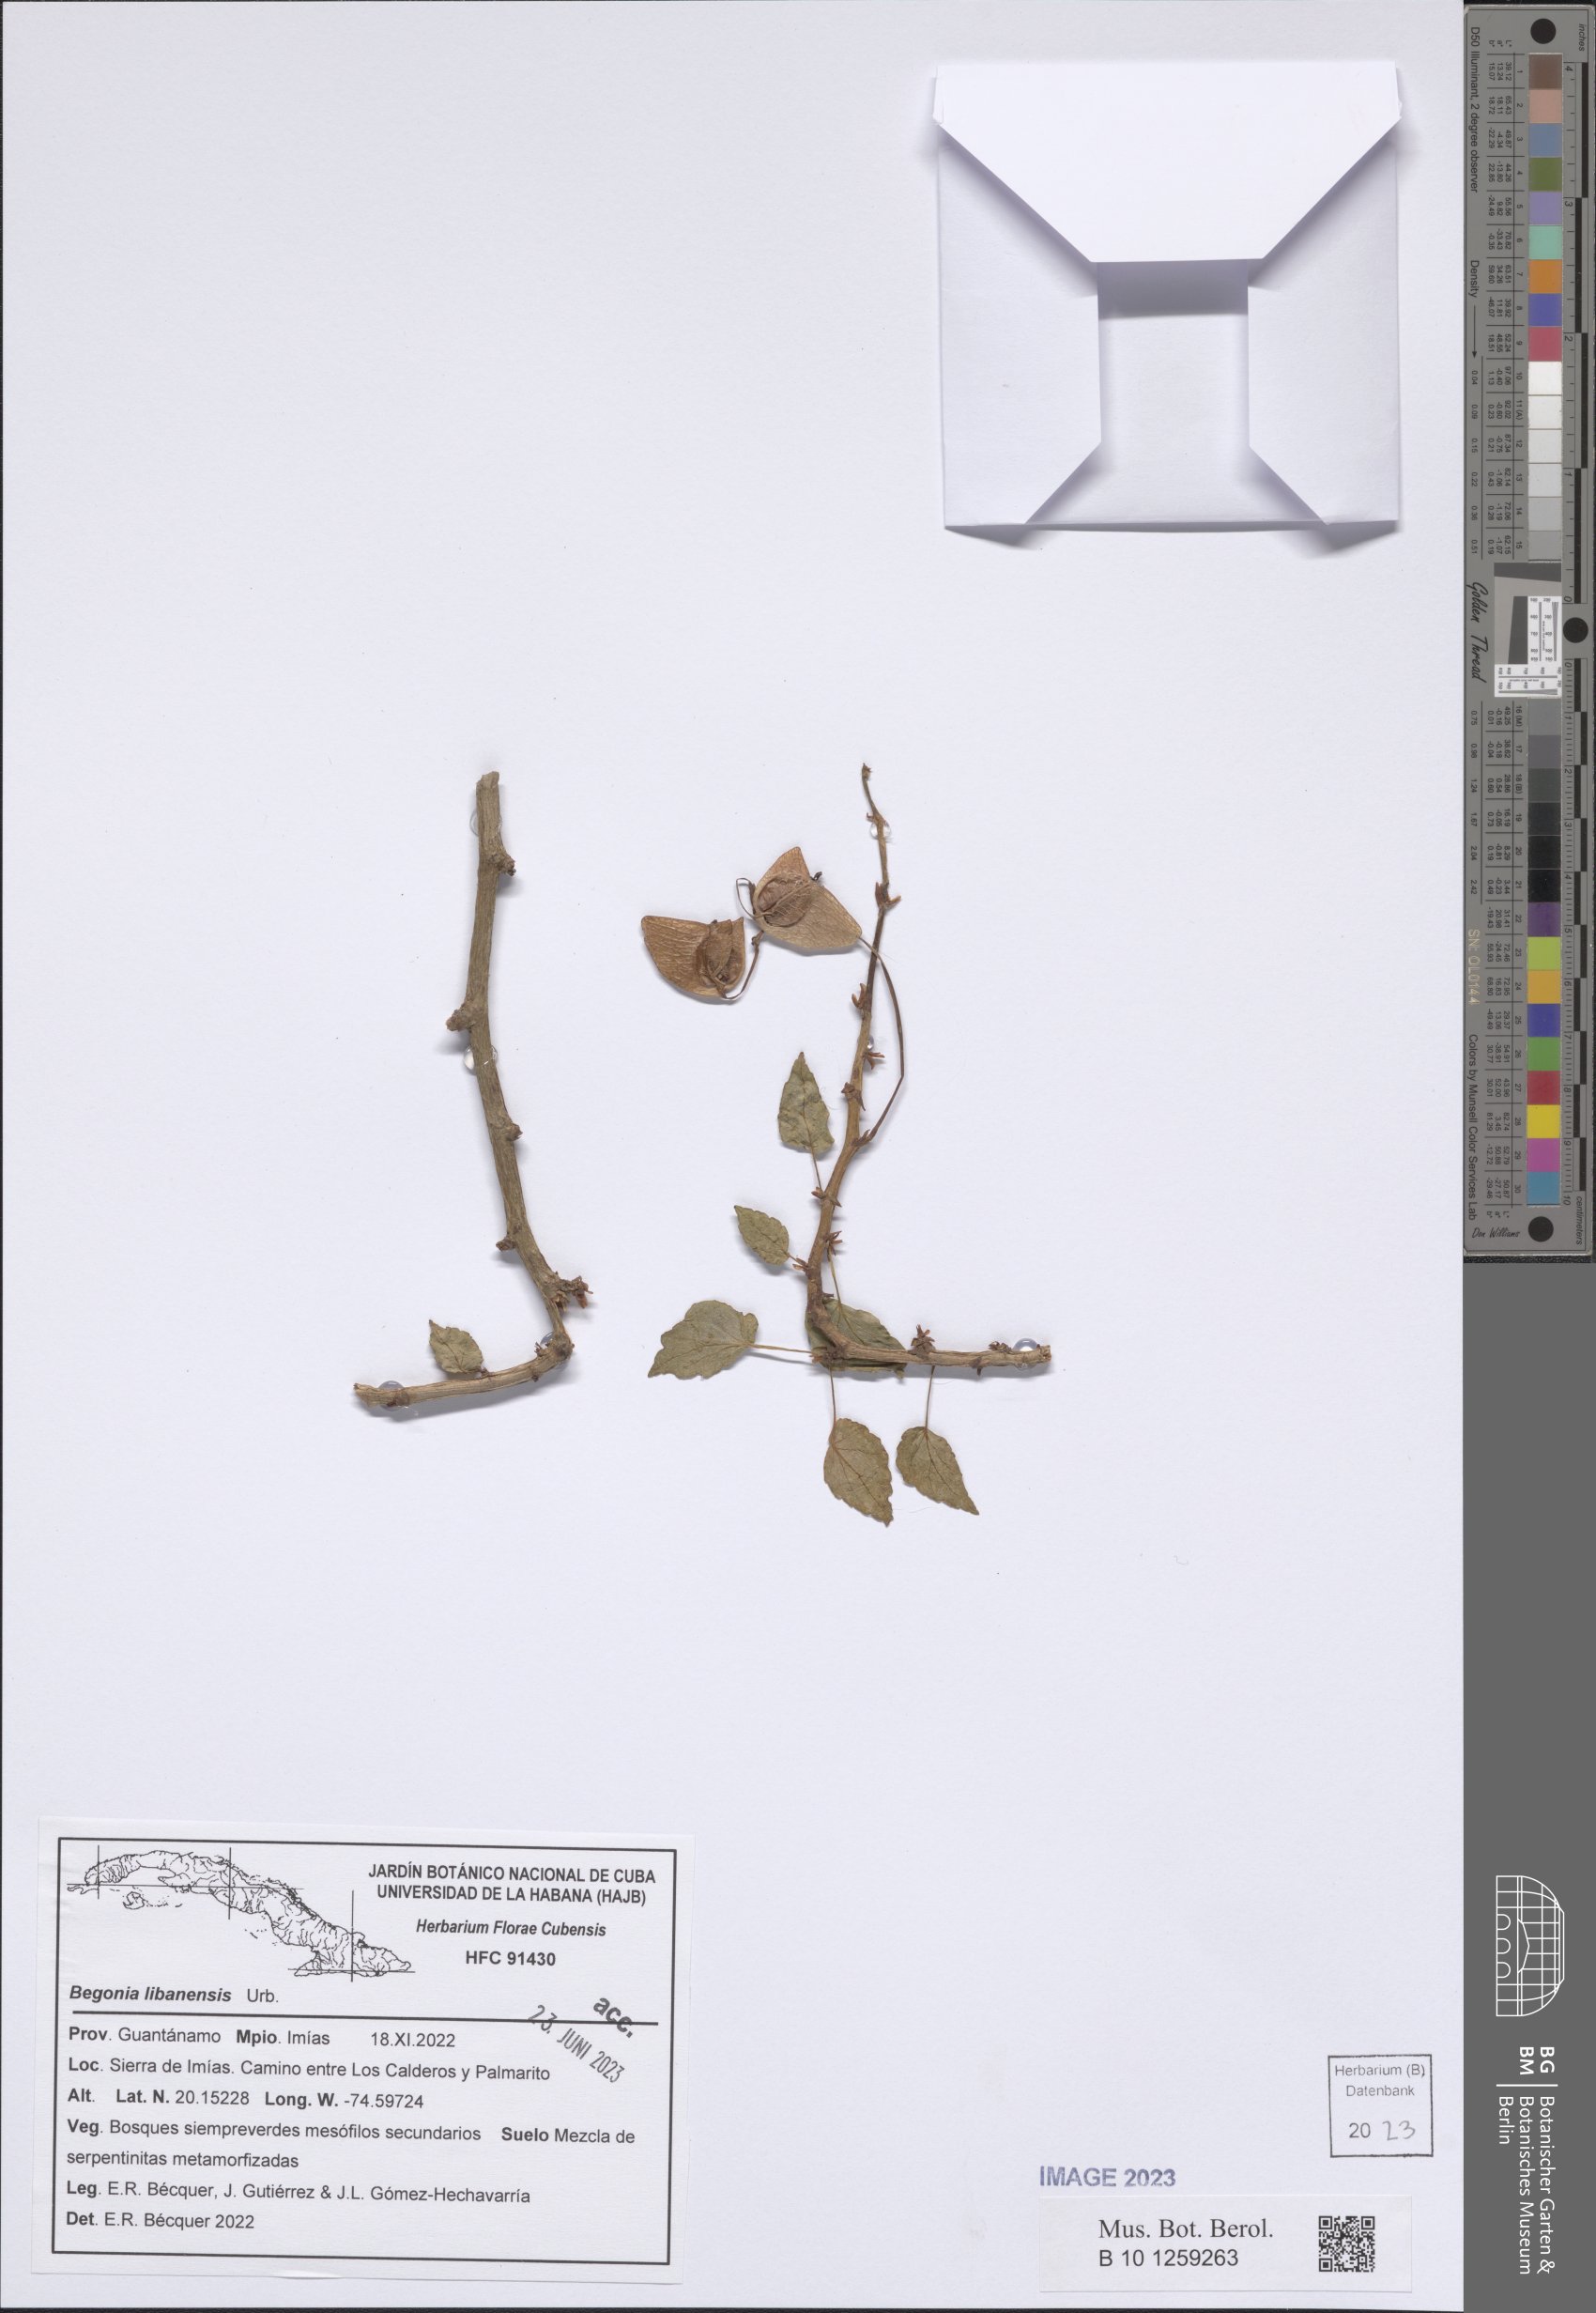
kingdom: Plantae
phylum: Tracheophyta
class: Magnoliopsida
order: Cucurbitales
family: Begoniaceae
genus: Begonia
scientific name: Begonia libanensis
